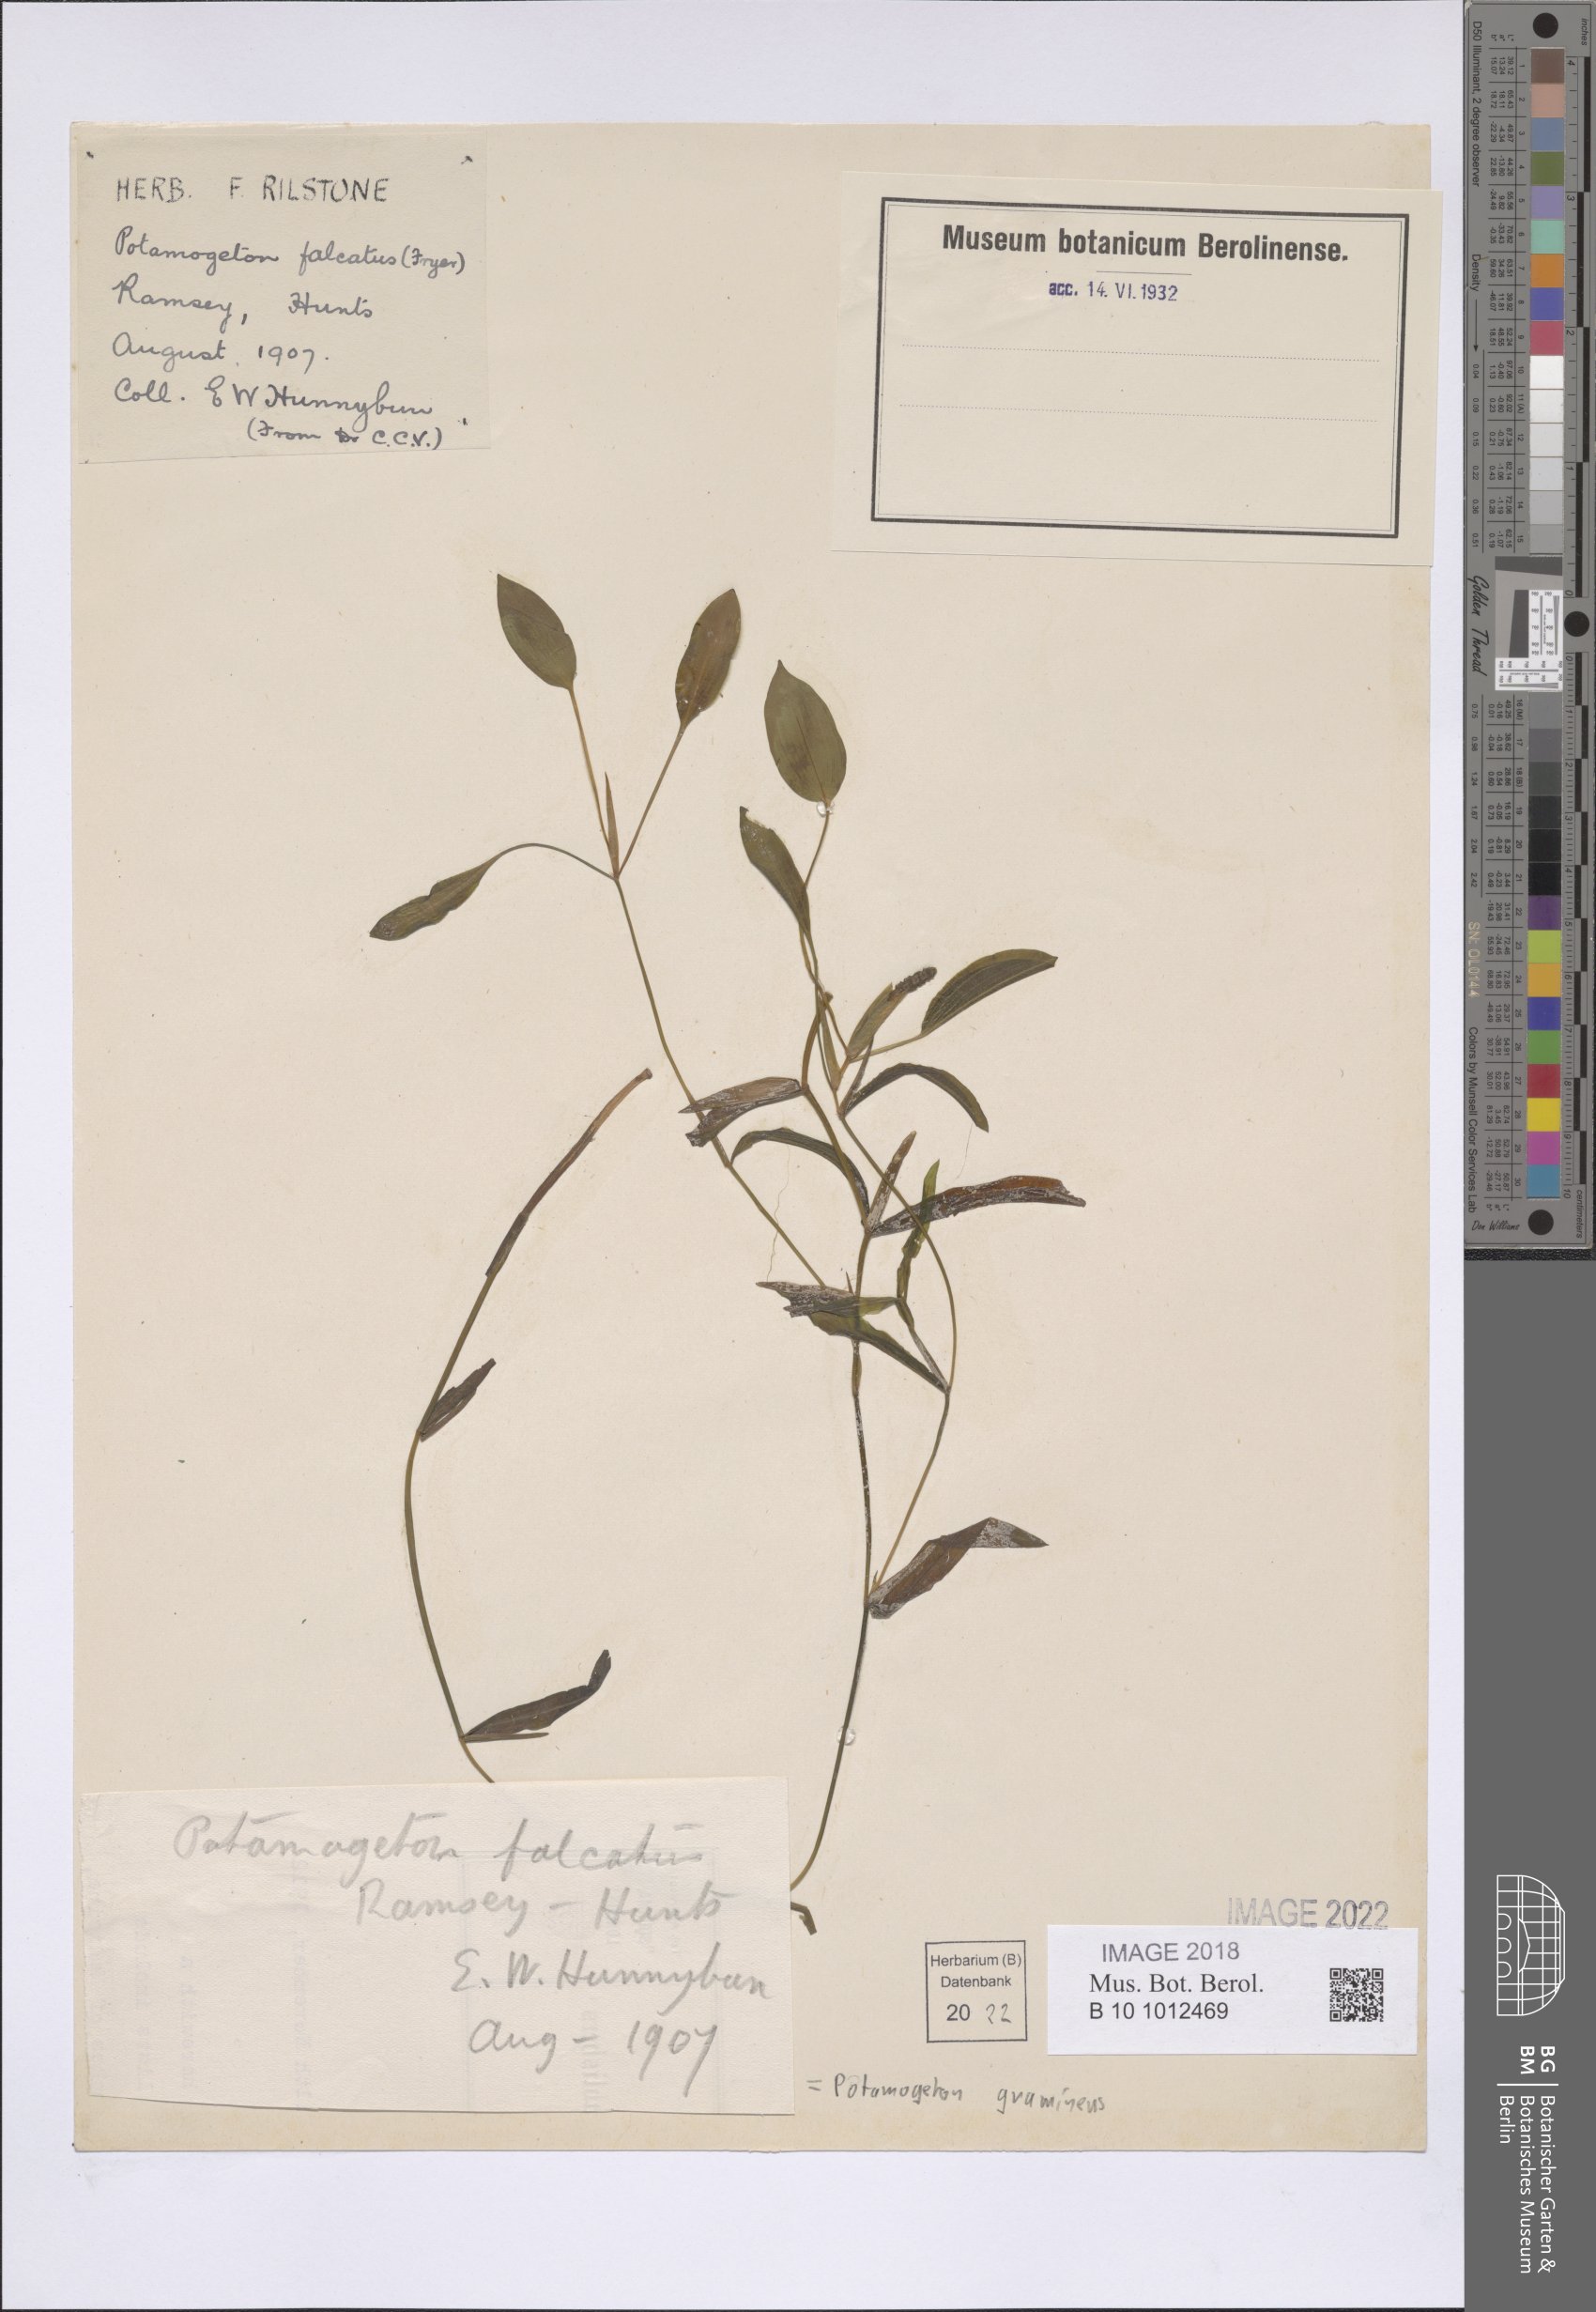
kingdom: Plantae
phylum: Tracheophyta
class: Liliopsida
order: Alismatales
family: Potamogetonaceae
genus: Potamogeton
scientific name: Potamogeton gramineus
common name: Various-leaved pondweed
